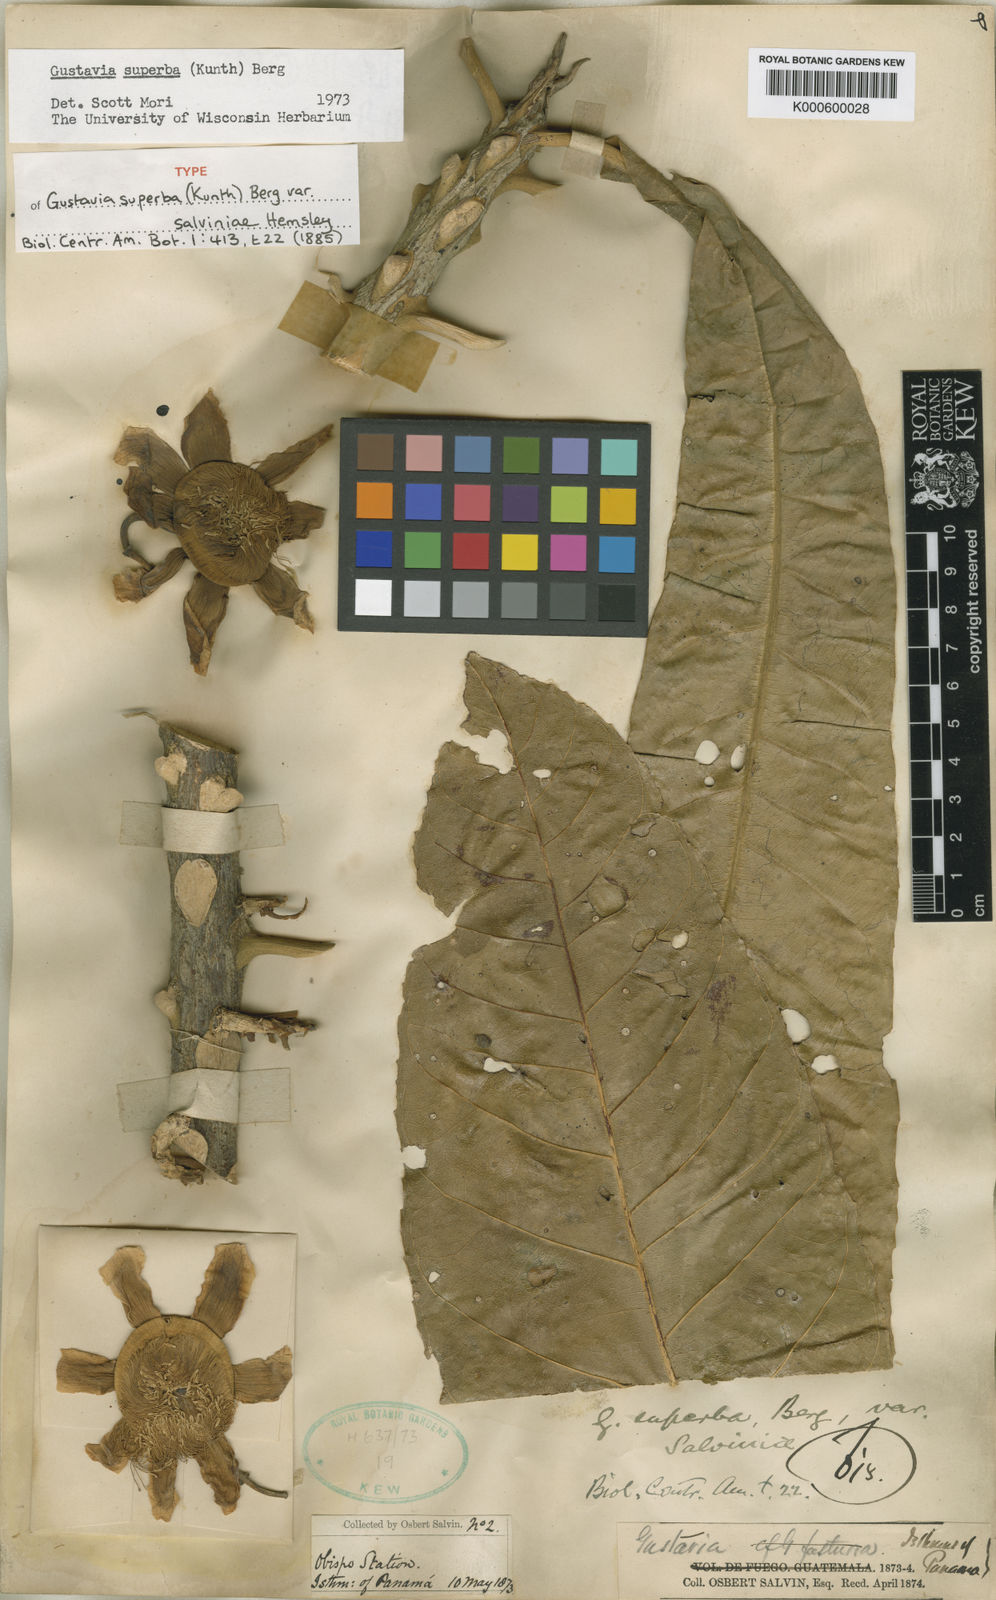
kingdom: Plantae
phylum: Tracheophyta
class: Magnoliopsida
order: Ericales
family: Lecythidaceae
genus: Gustavia
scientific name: Gustavia superba
